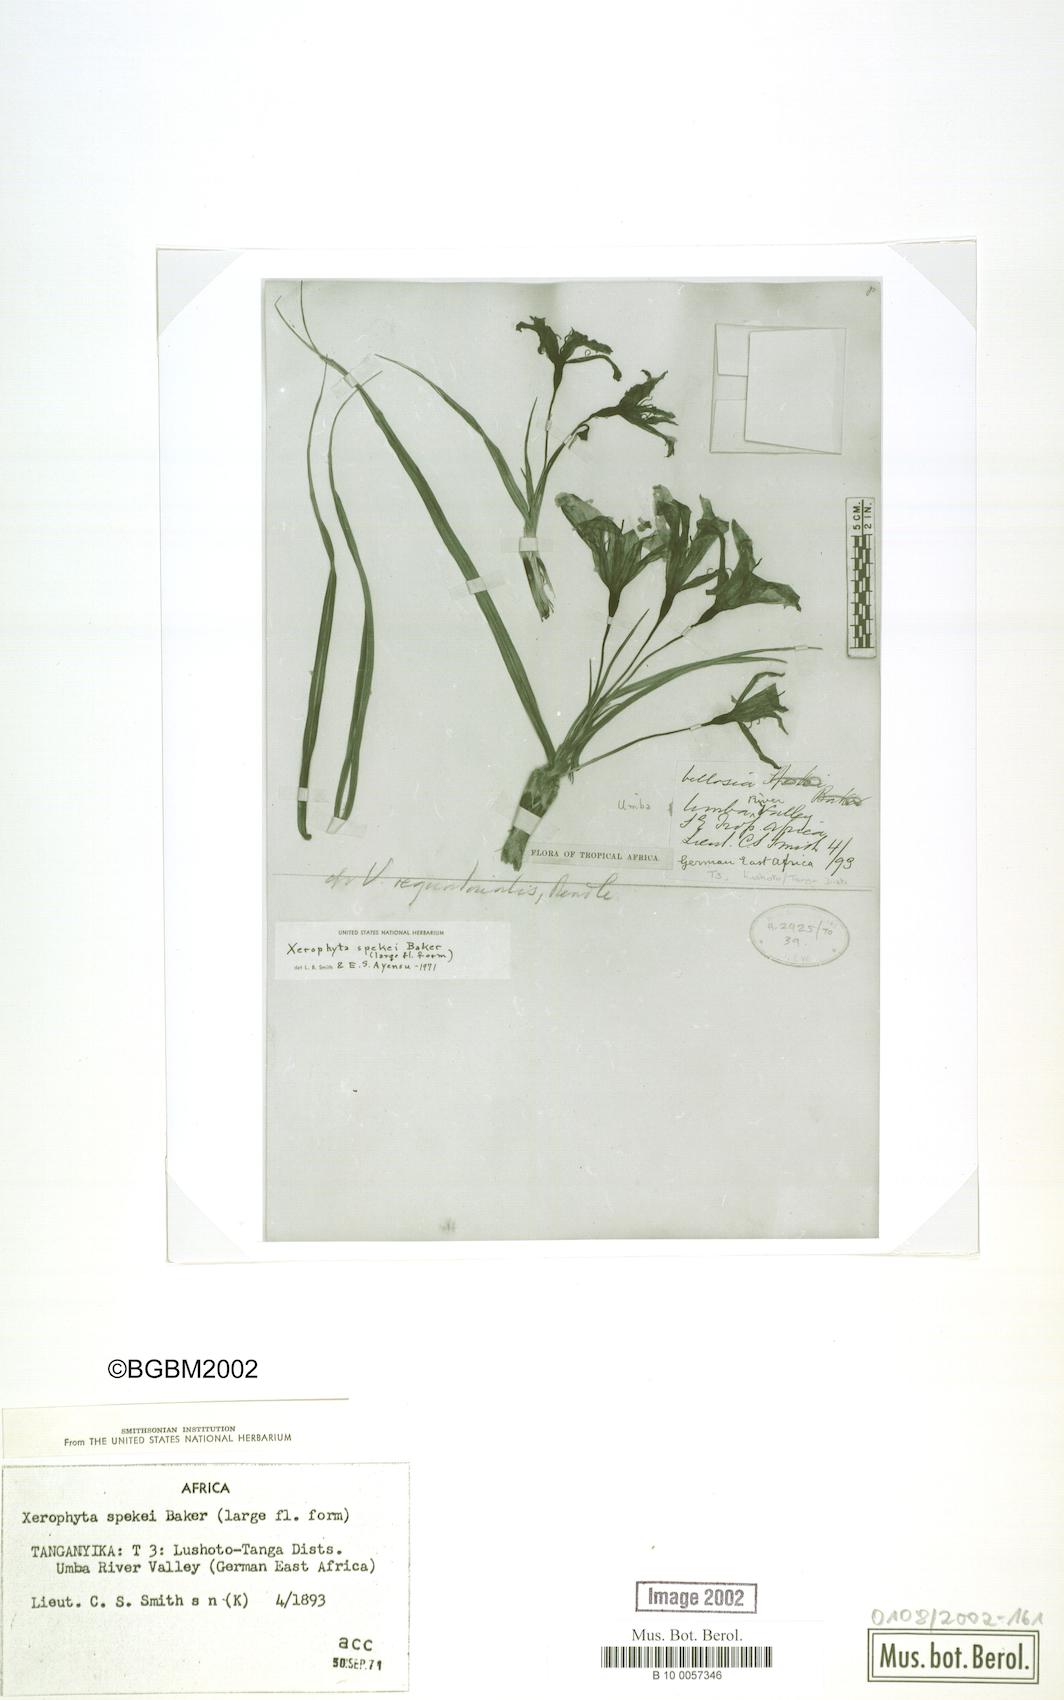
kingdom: Plantae
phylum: Tracheophyta
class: Liliopsida
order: Pandanales
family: Velloziaceae
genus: Xerophyta
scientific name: Xerophyta spekei
